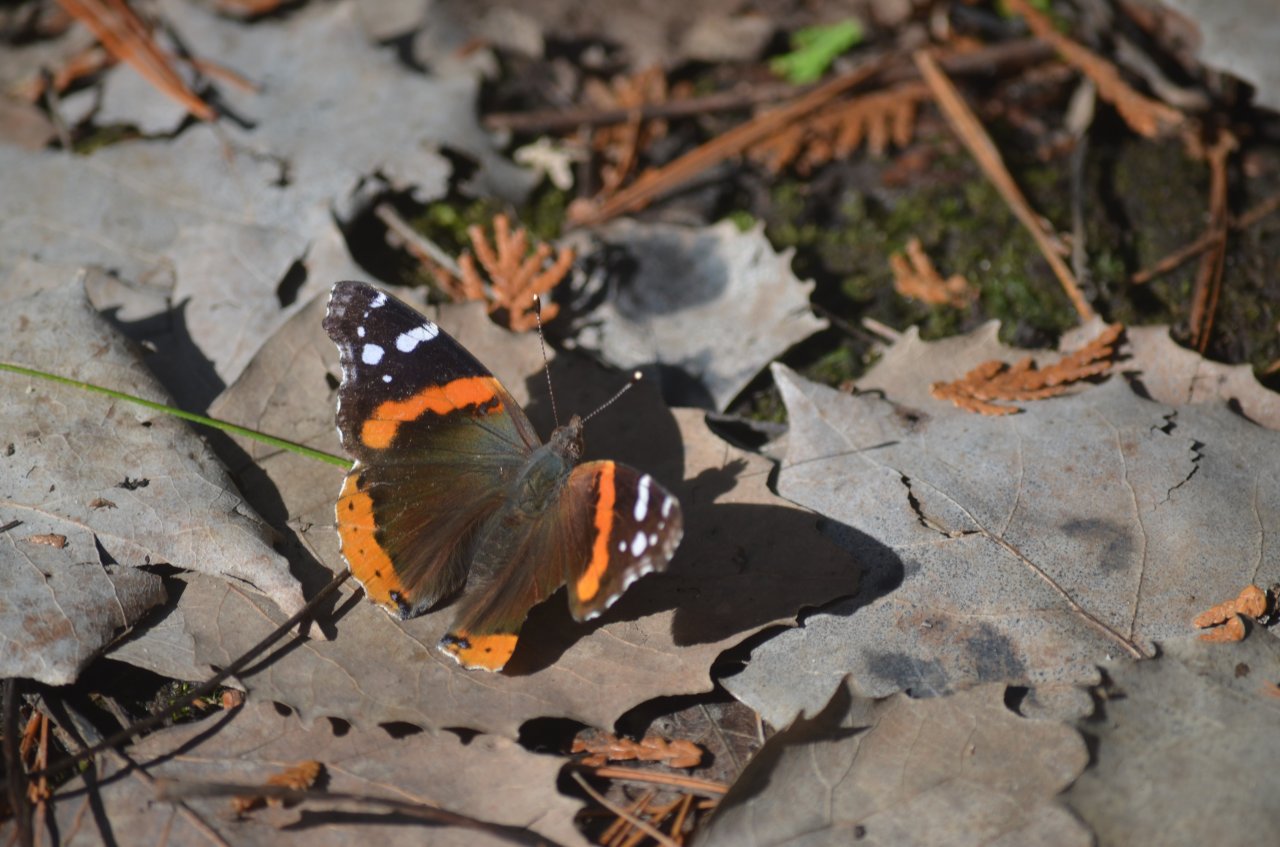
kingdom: Animalia
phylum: Arthropoda
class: Insecta
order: Lepidoptera
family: Nymphalidae
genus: Vanessa
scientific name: Vanessa atalanta
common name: Red Admiral
